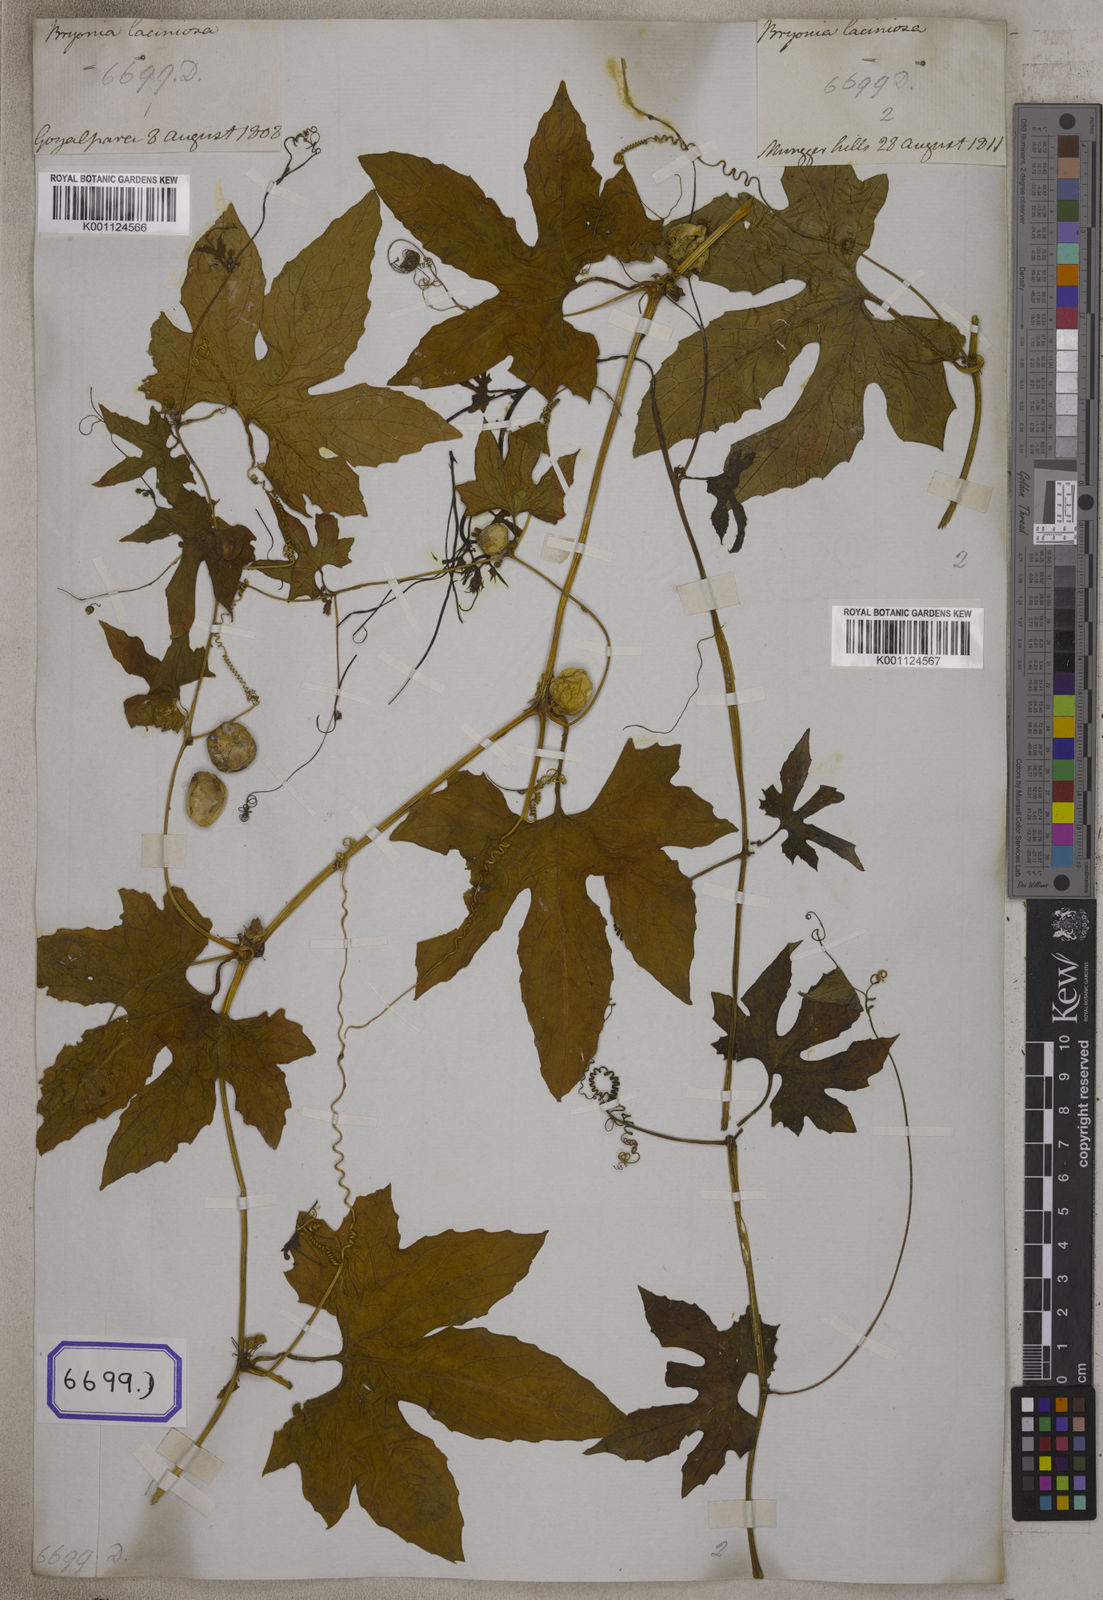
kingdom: Plantae
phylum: Tracheophyta
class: Magnoliopsida
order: Cucurbitales
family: Cucurbitaceae
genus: Diplocyclos
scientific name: Diplocyclos palmatus
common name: Striped-cucumber
